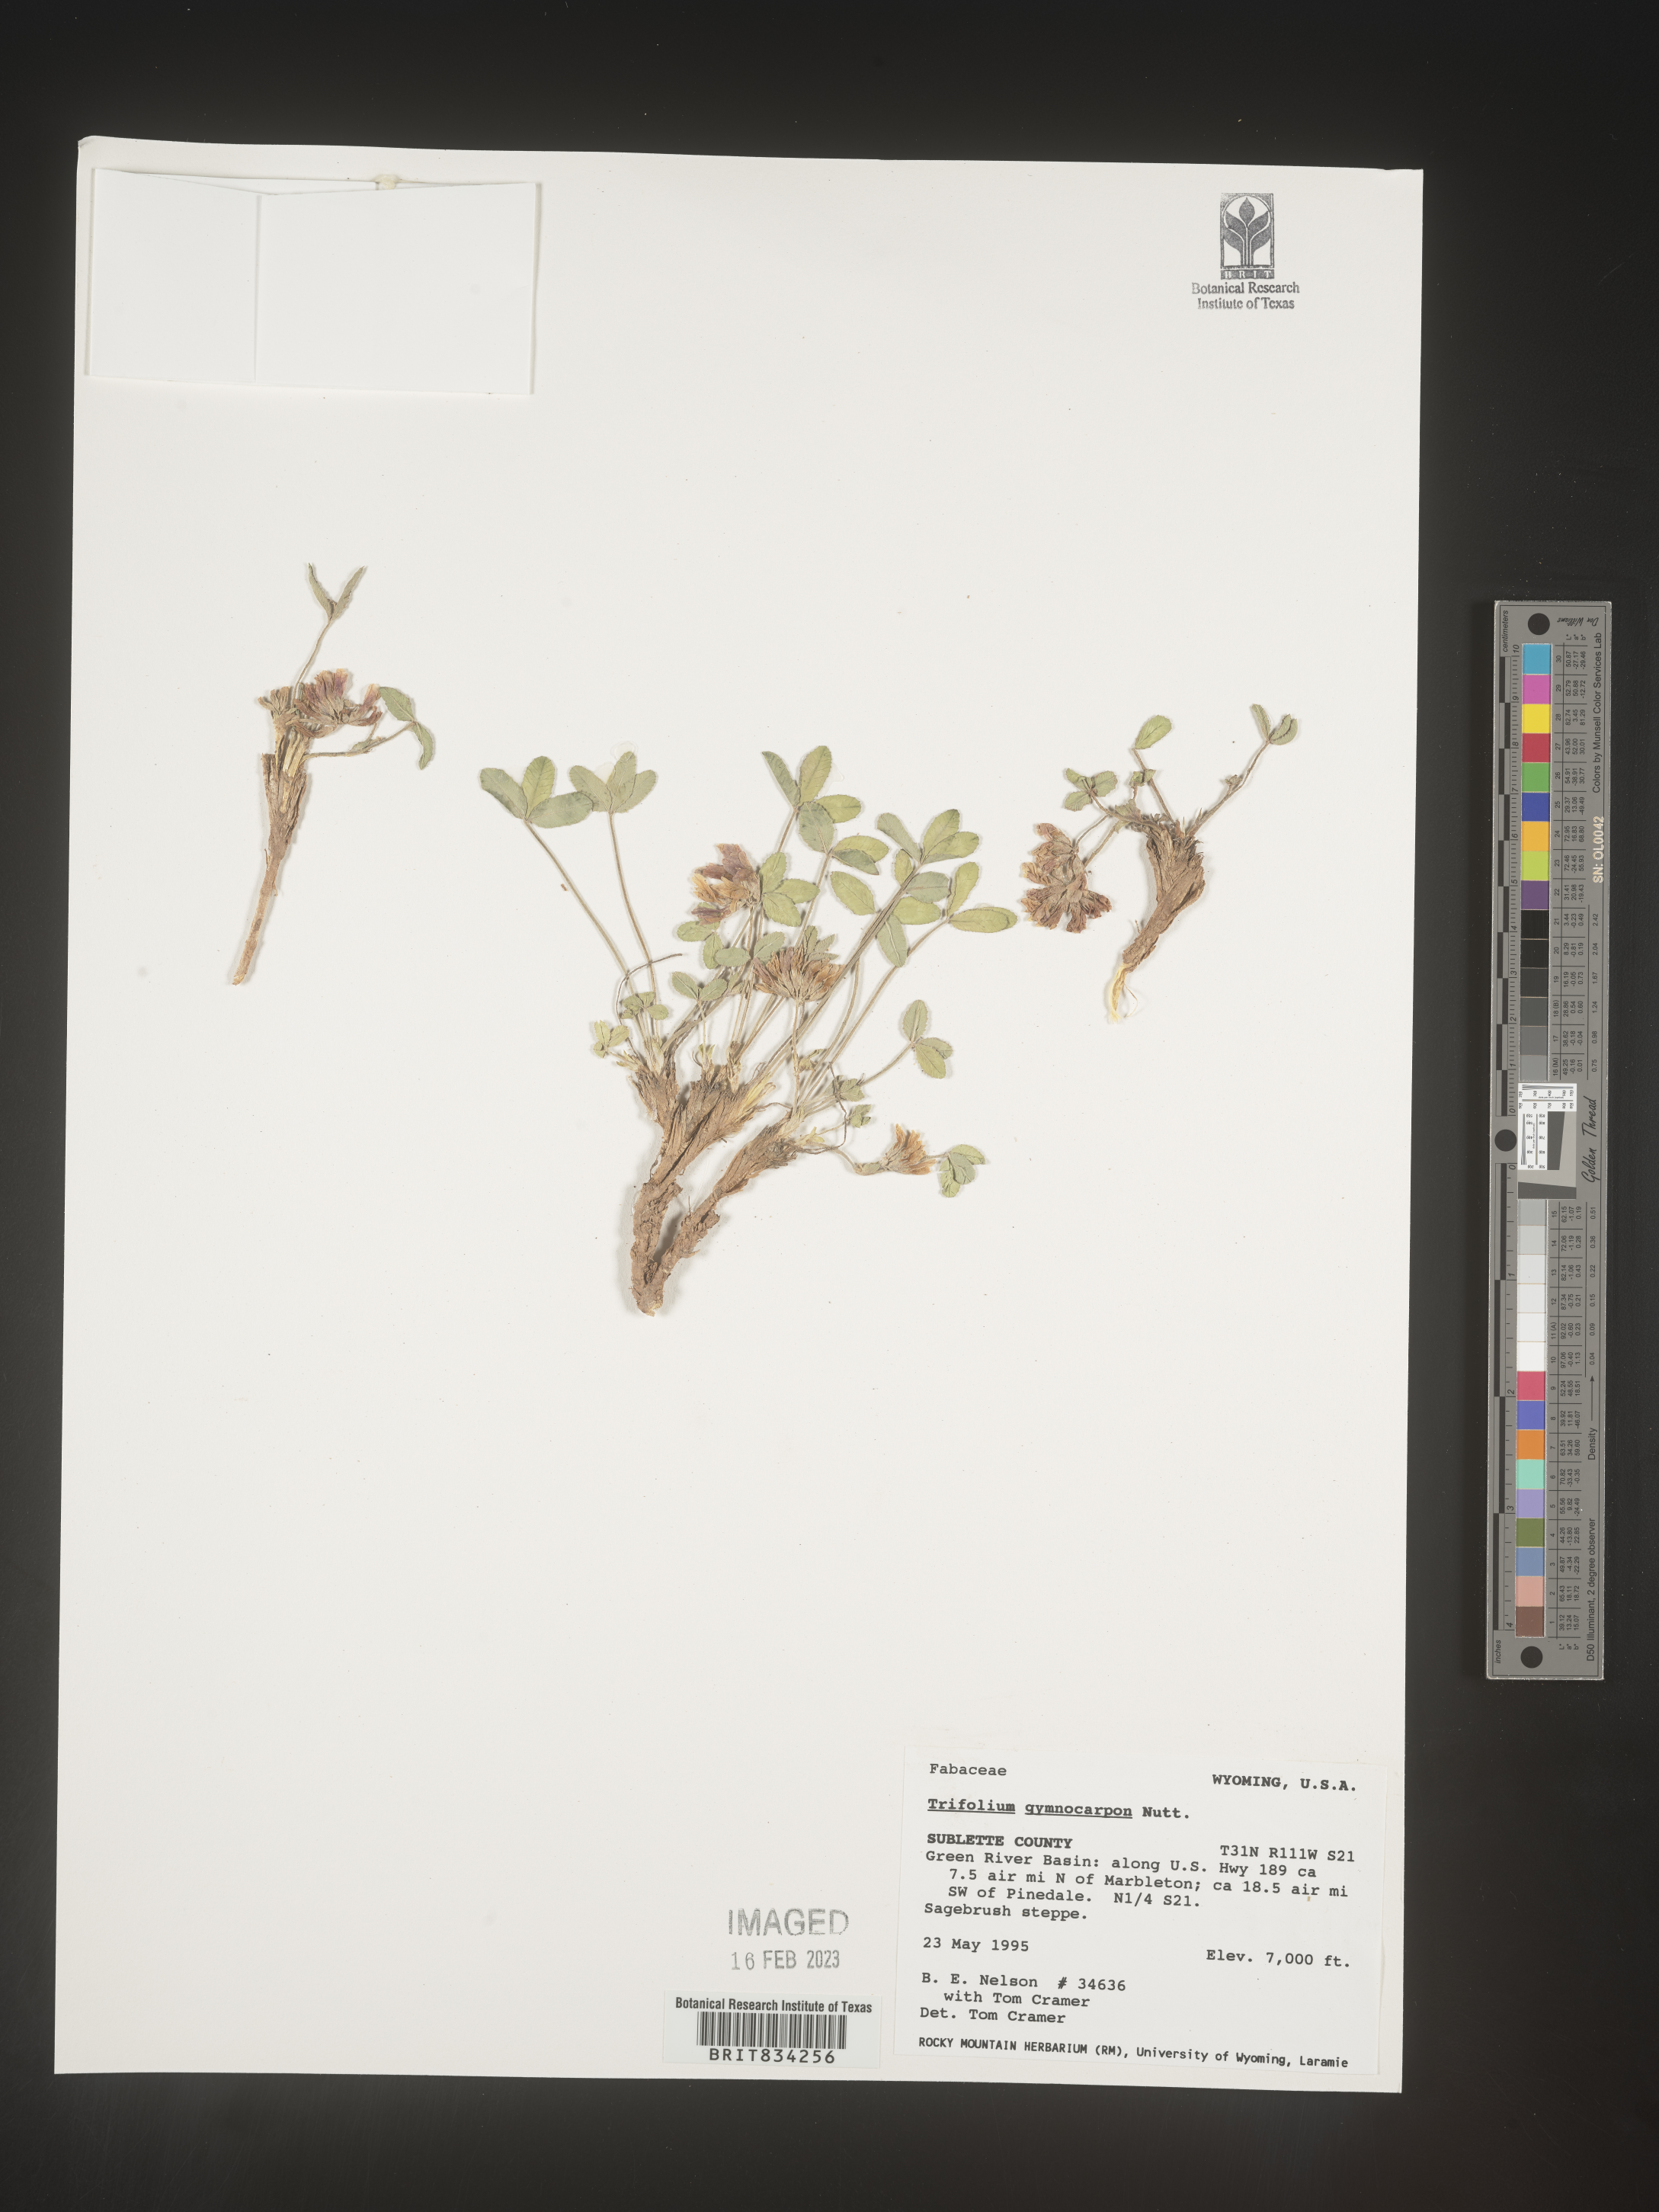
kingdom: Plantae
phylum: Tracheophyta
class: Magnoliopsida
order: Fabales
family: Fabaceae
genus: Trifolium
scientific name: Trifolium
